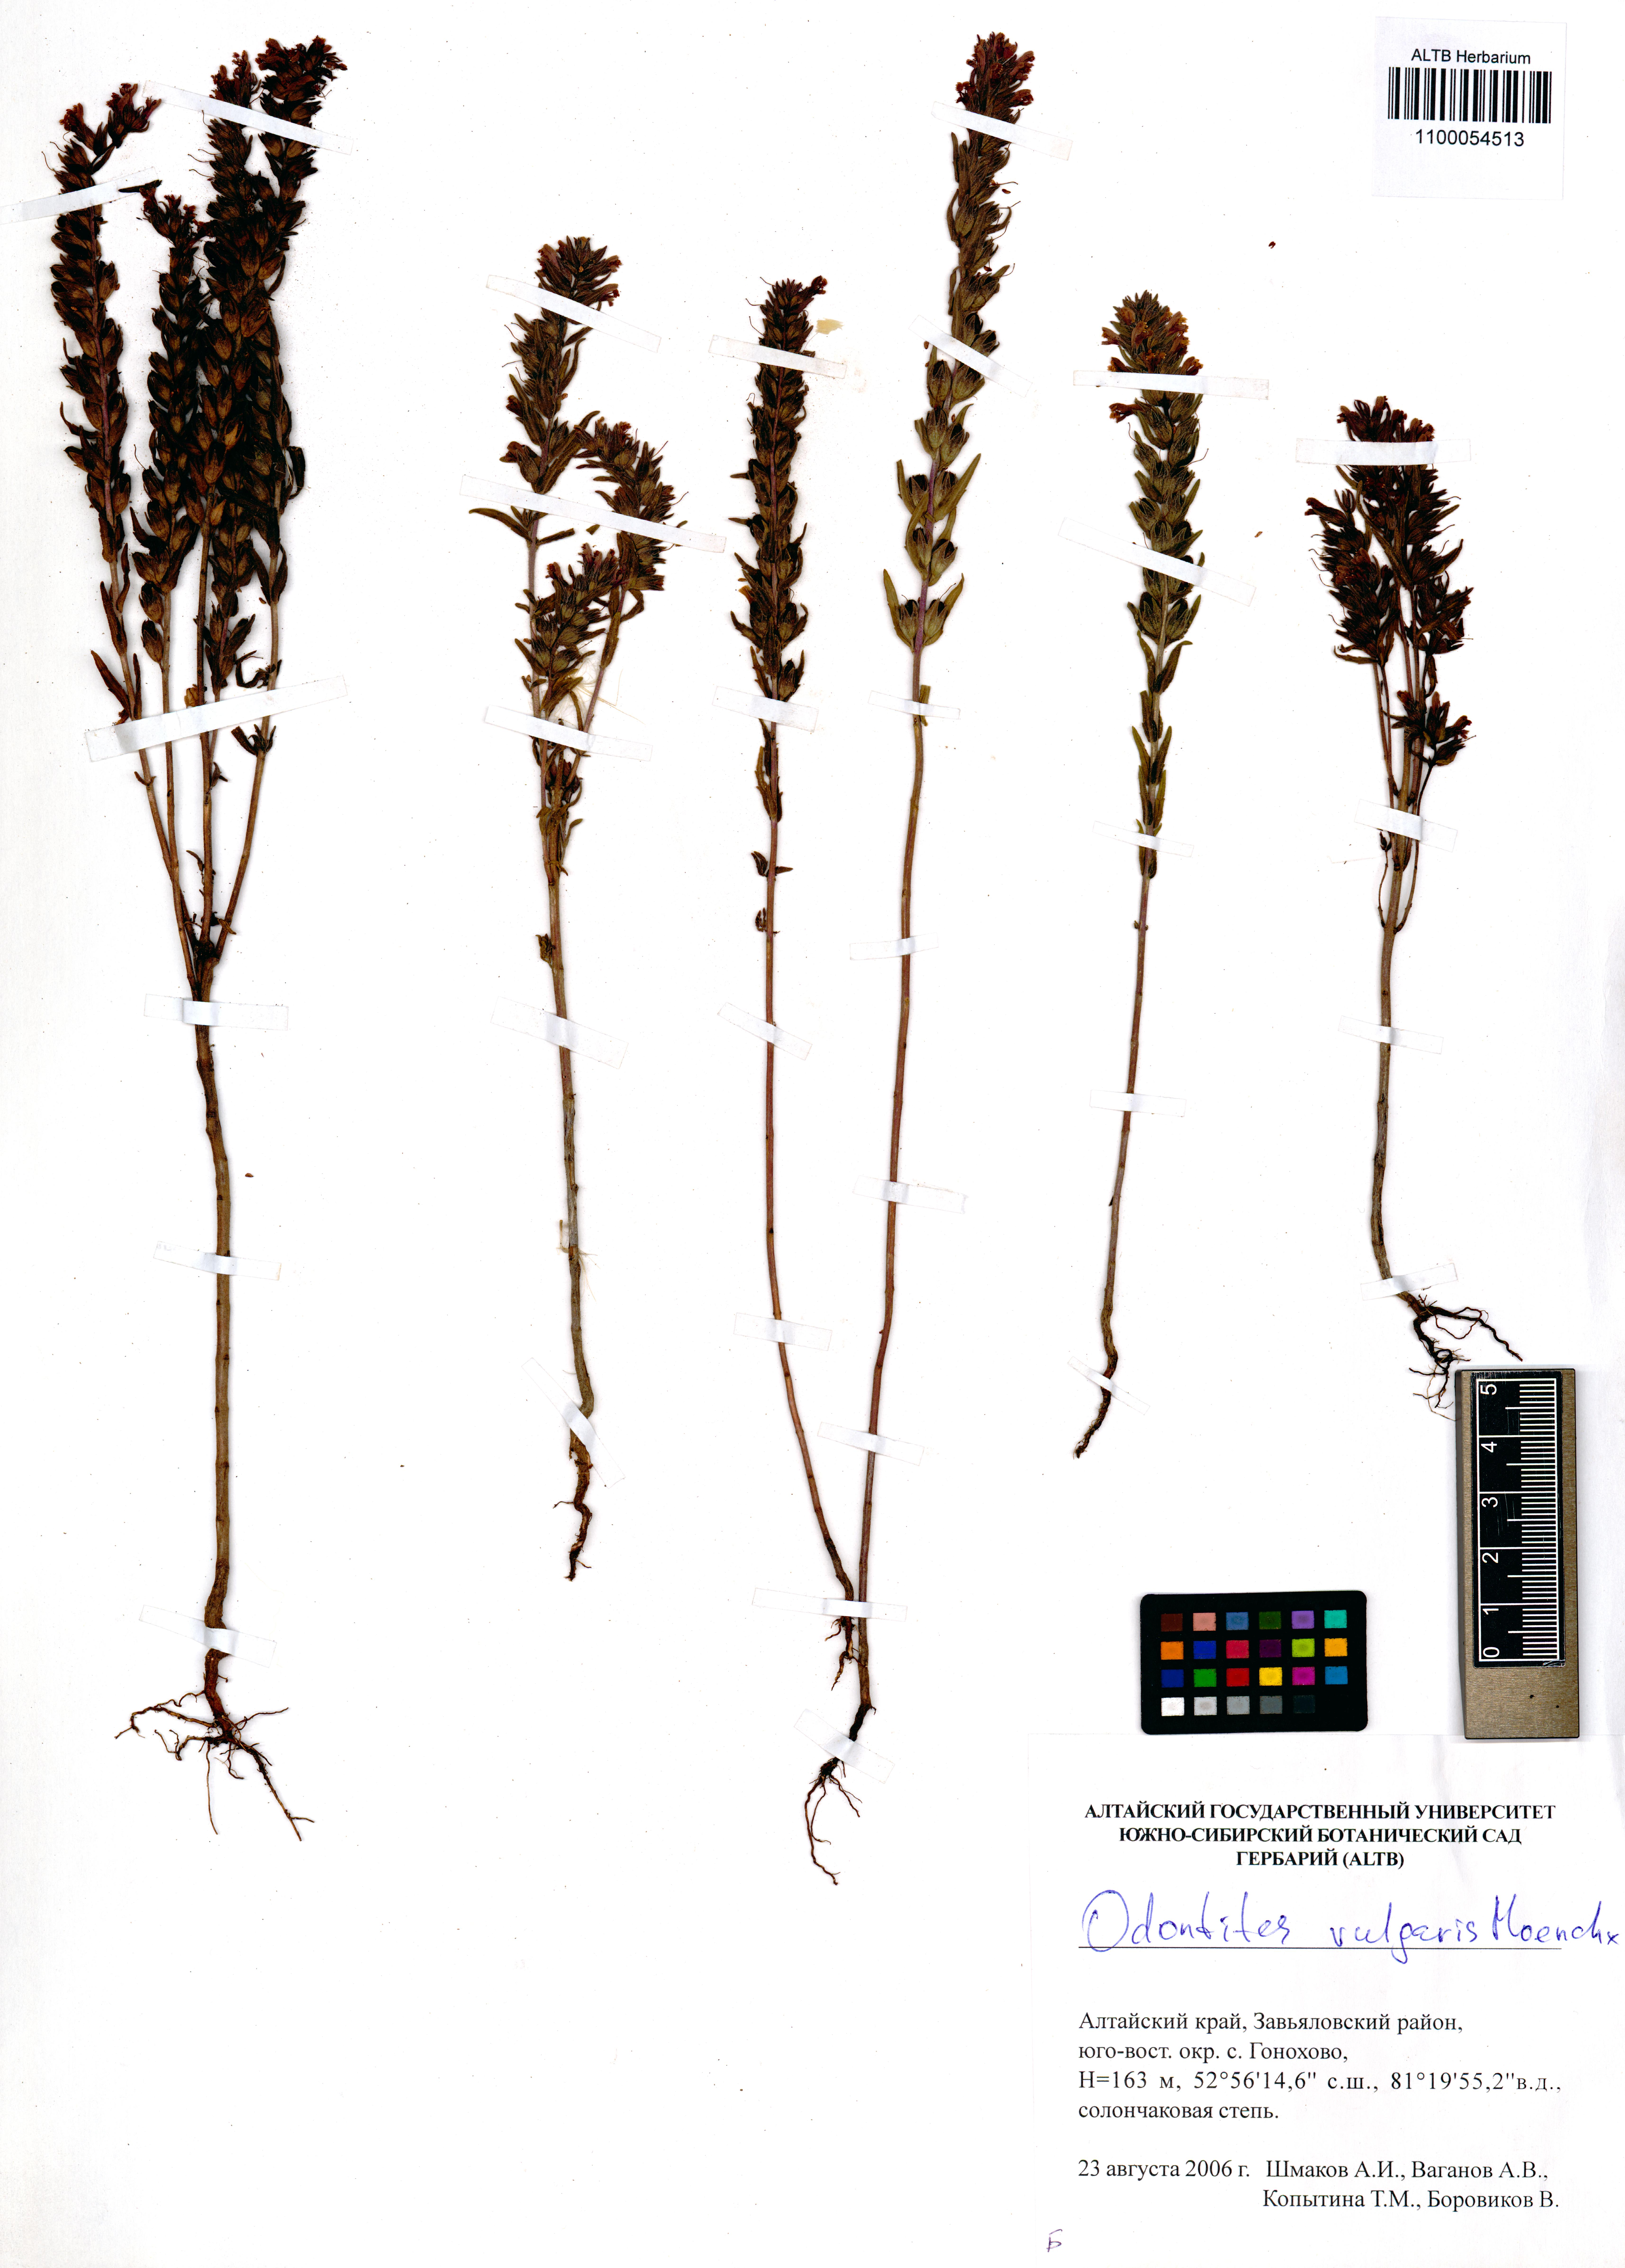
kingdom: Plantae
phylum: Tracheophyta
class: Magnoliopsida
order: Lamiales
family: Orobanchaceae
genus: Odontites
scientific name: Odontites vulgaris
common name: Broomrape
